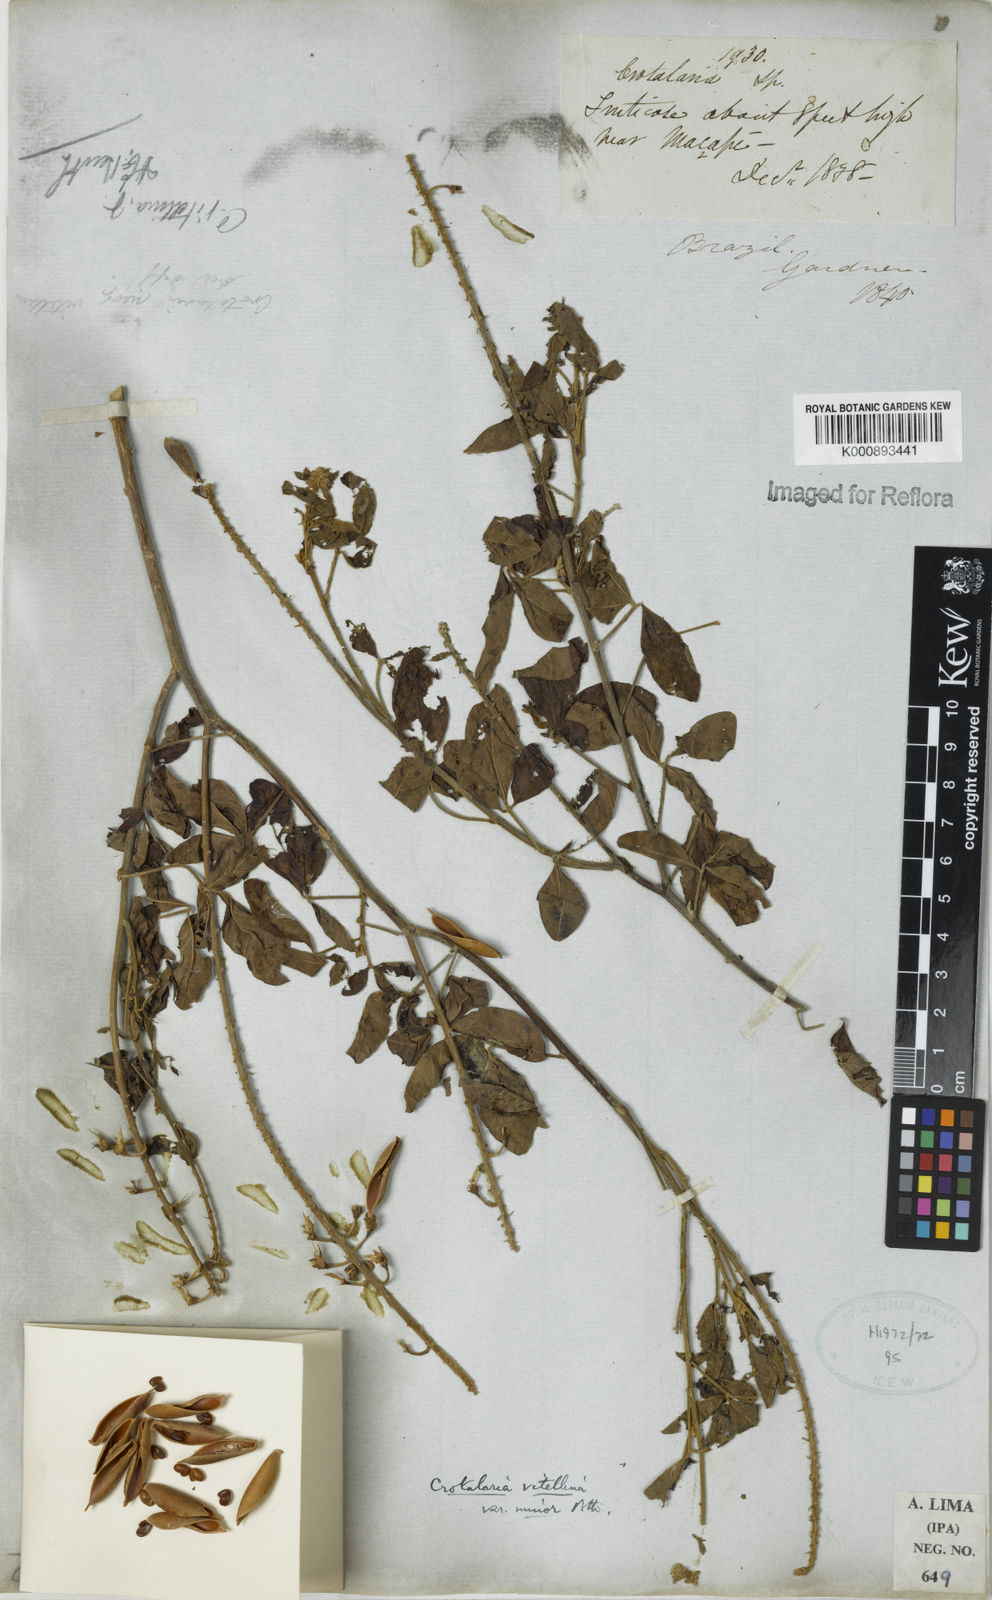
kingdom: Plantae
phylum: Tracheophyta
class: Magnoliopsida
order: Fabales
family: Fabaceae
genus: Crotalaria
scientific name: Crotalaria vitellina
